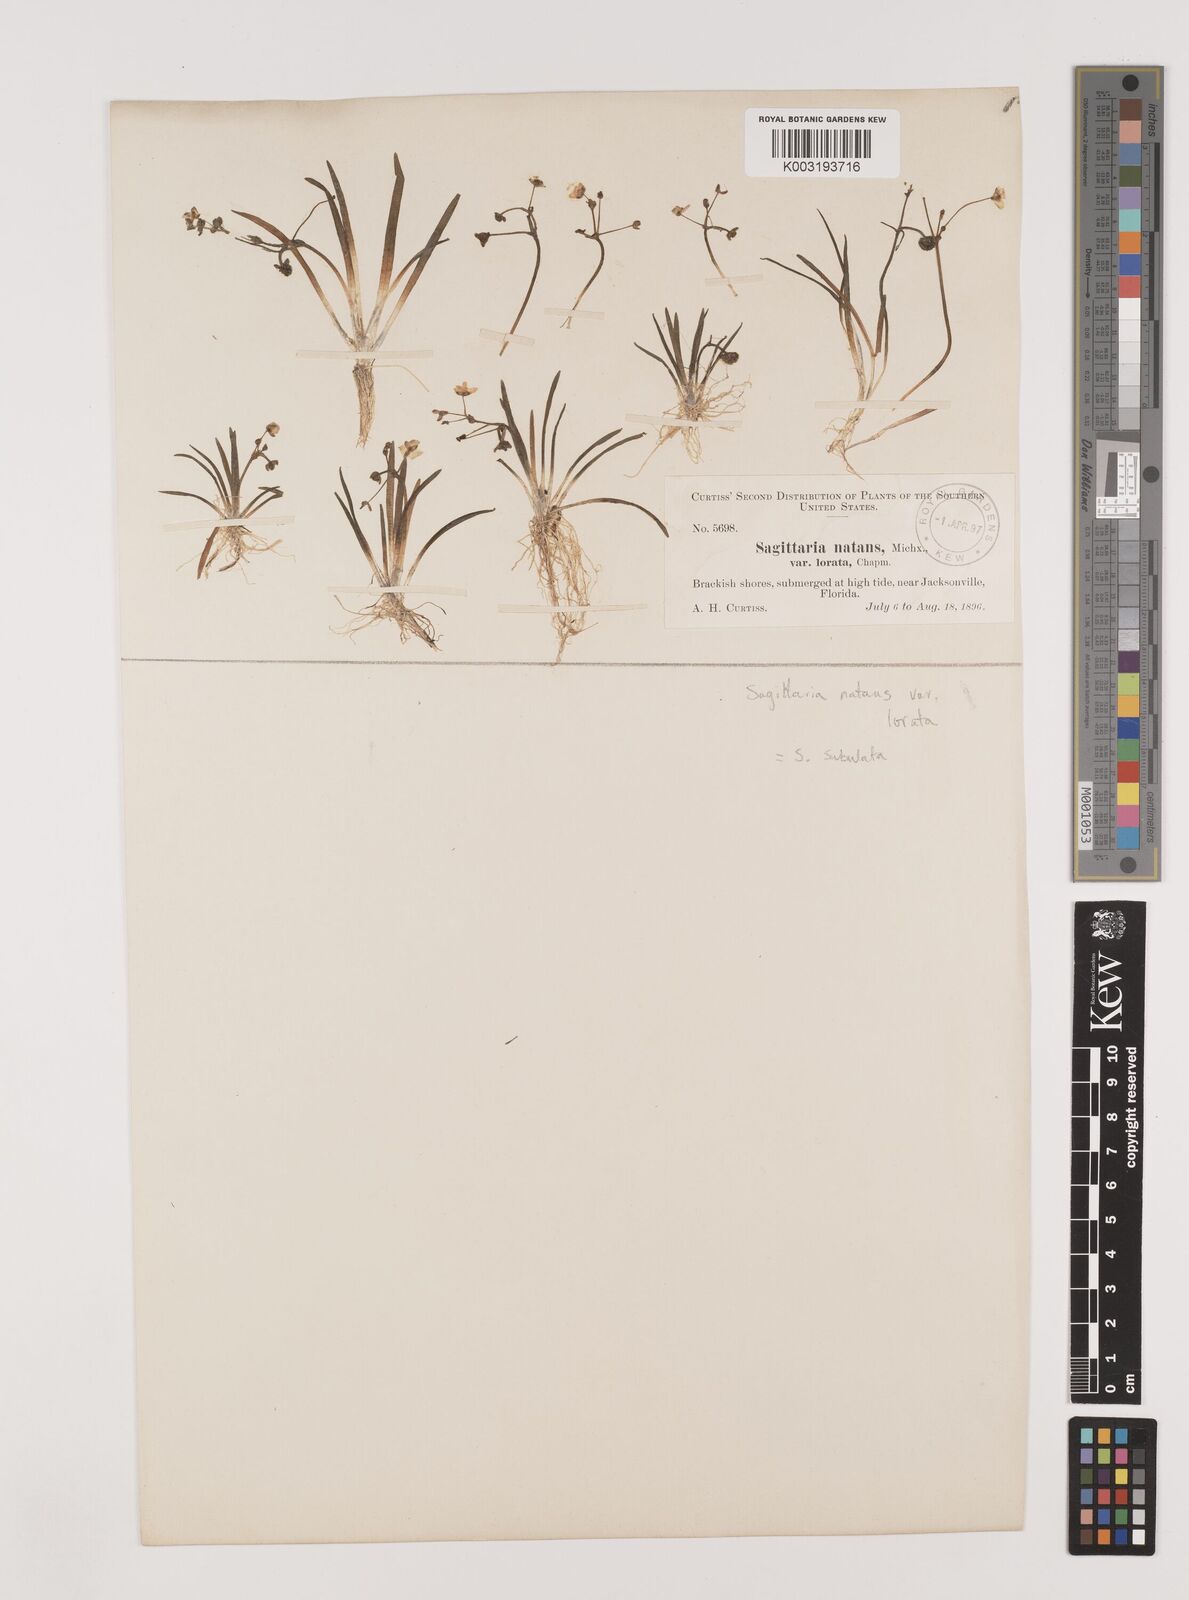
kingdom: Plantae
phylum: Tracheophyta
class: Liliopsida
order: Alismatales
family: Alismataceae
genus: Sagittaria
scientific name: Sagittaria subulata
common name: Narrow-leaved arrowhead
